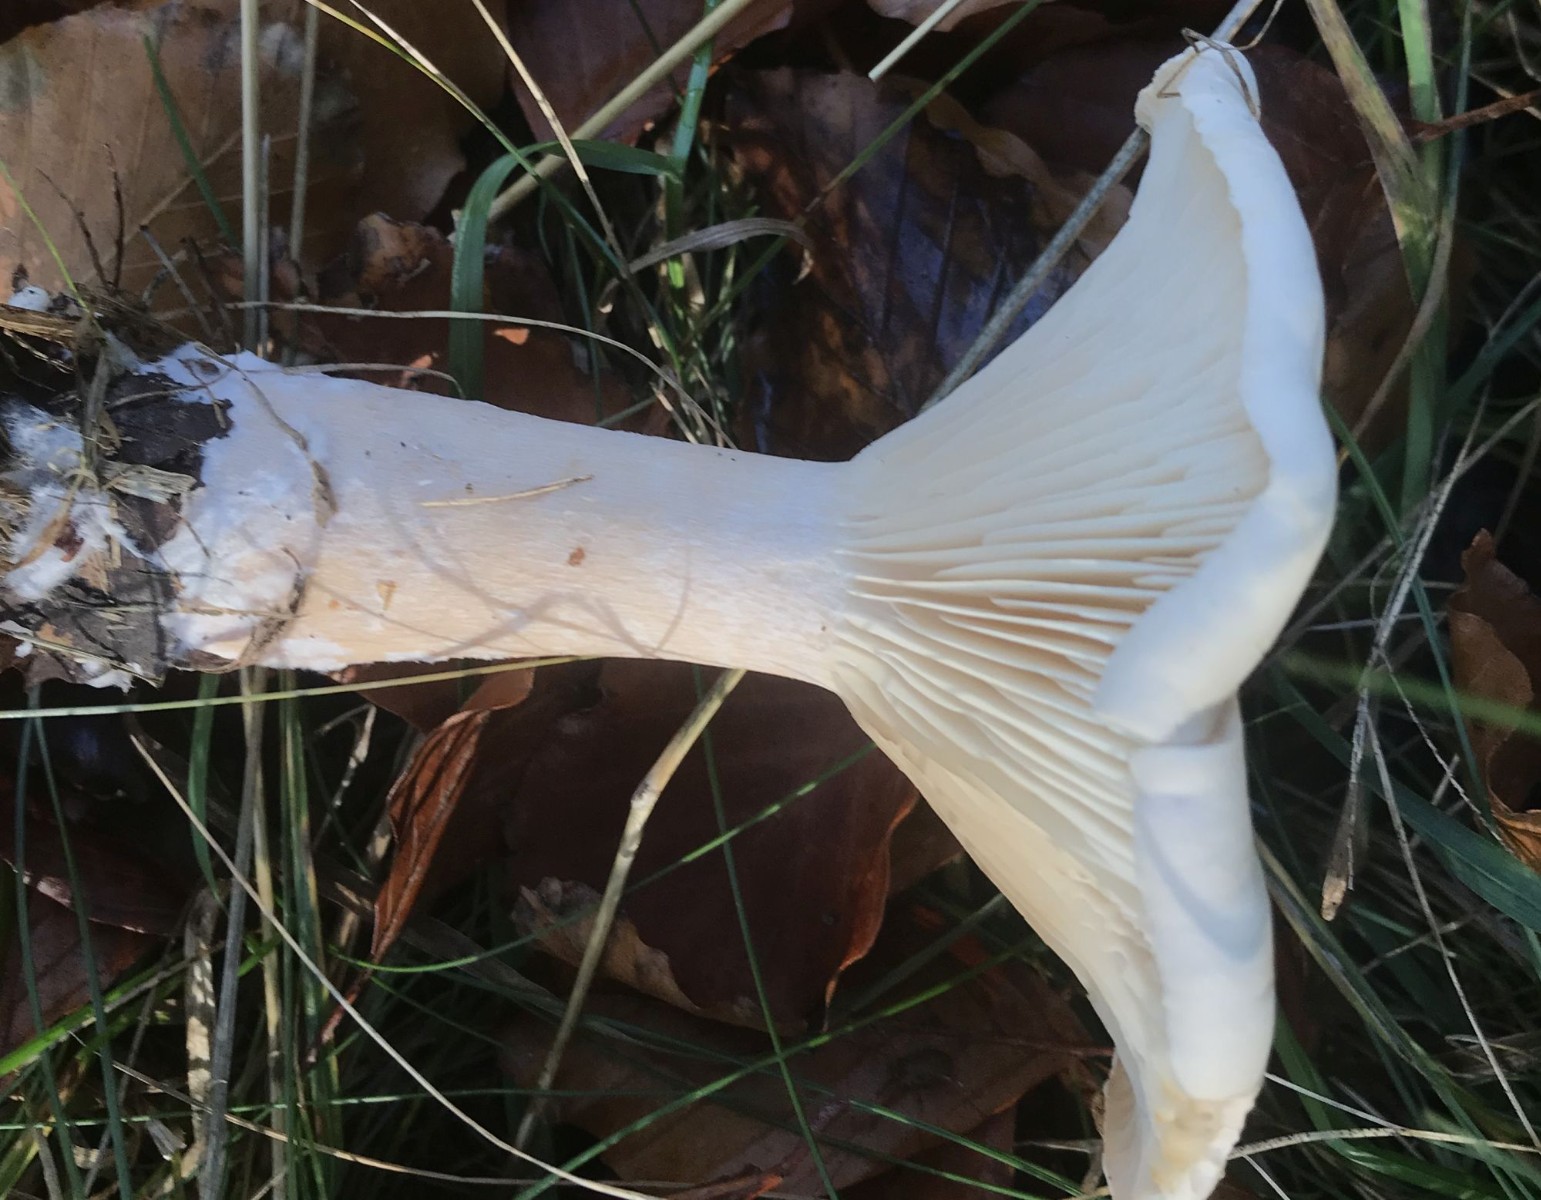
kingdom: Fungi
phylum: Basidiomycota
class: Agaricomycetes
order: Agaricales
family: Tricholomataceae
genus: Infundibulicybe
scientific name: Infundibulicybe geotropa
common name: stor tragthat
